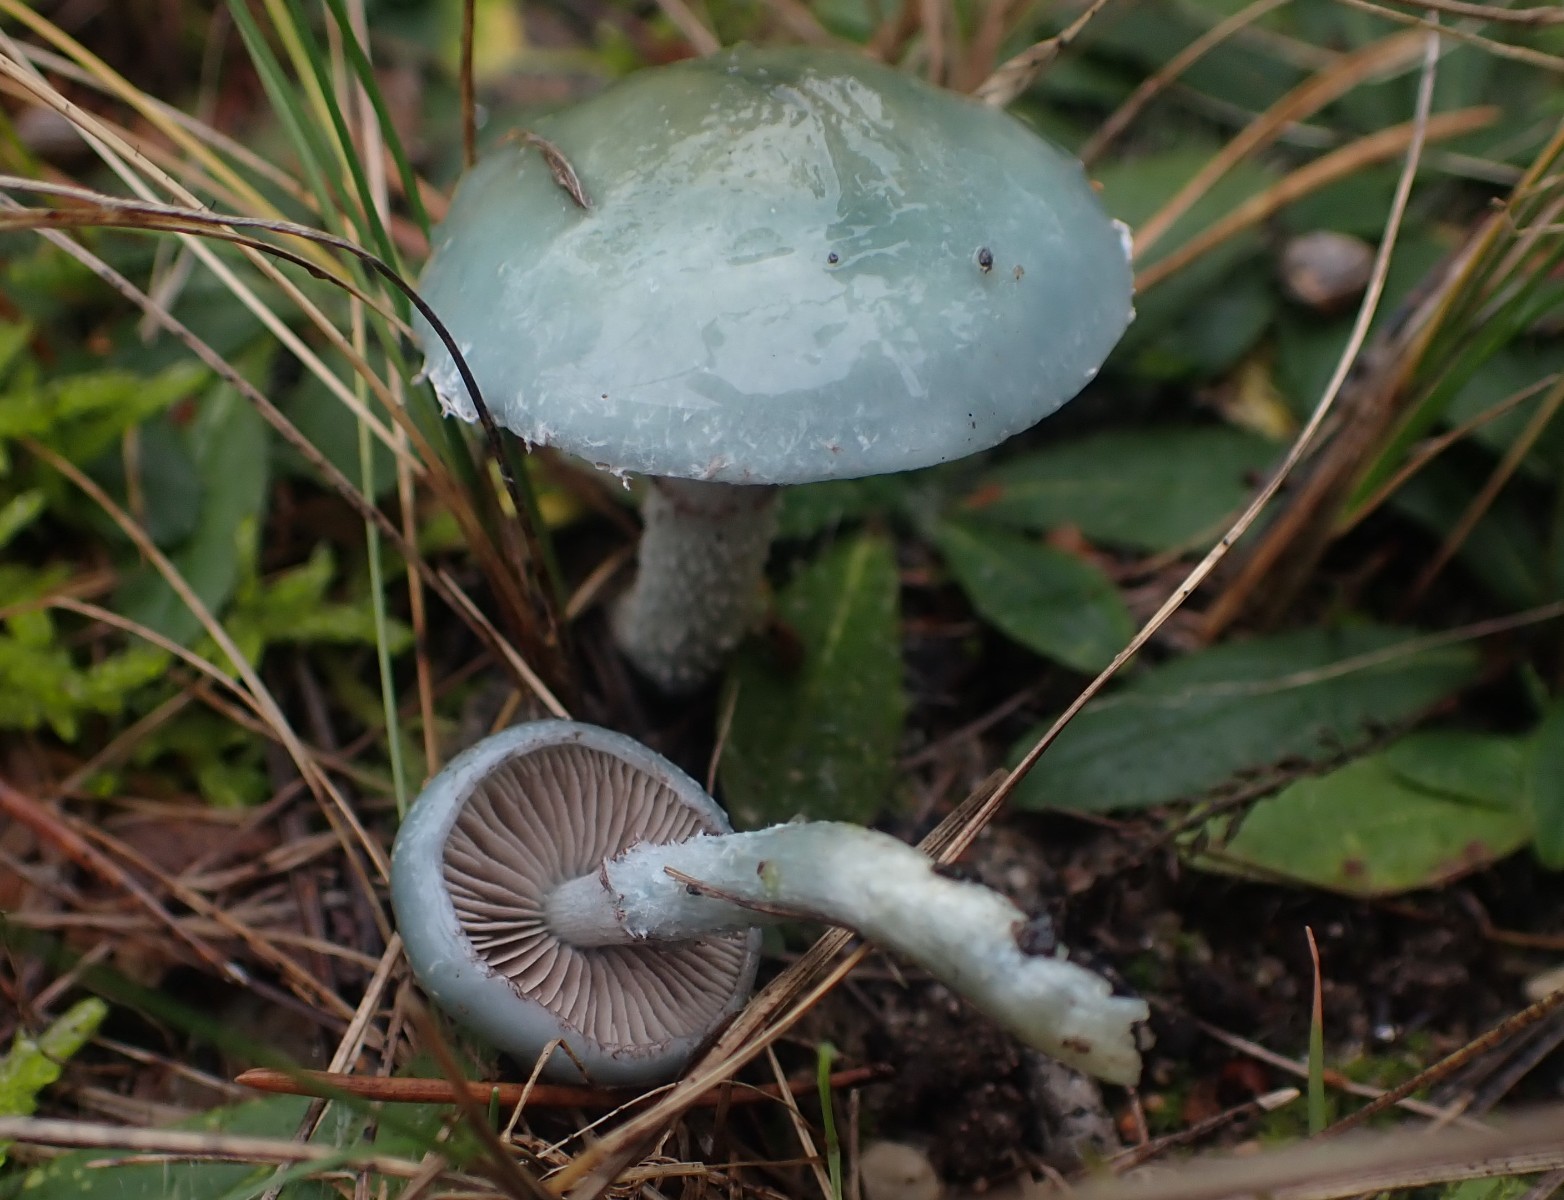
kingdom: Fungi
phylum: Basidiomycota
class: Agaricomycetes
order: Agaricales
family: Strophariaceae
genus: Stropharia
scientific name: Stropharia cyanea
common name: blågrøn bredblad
